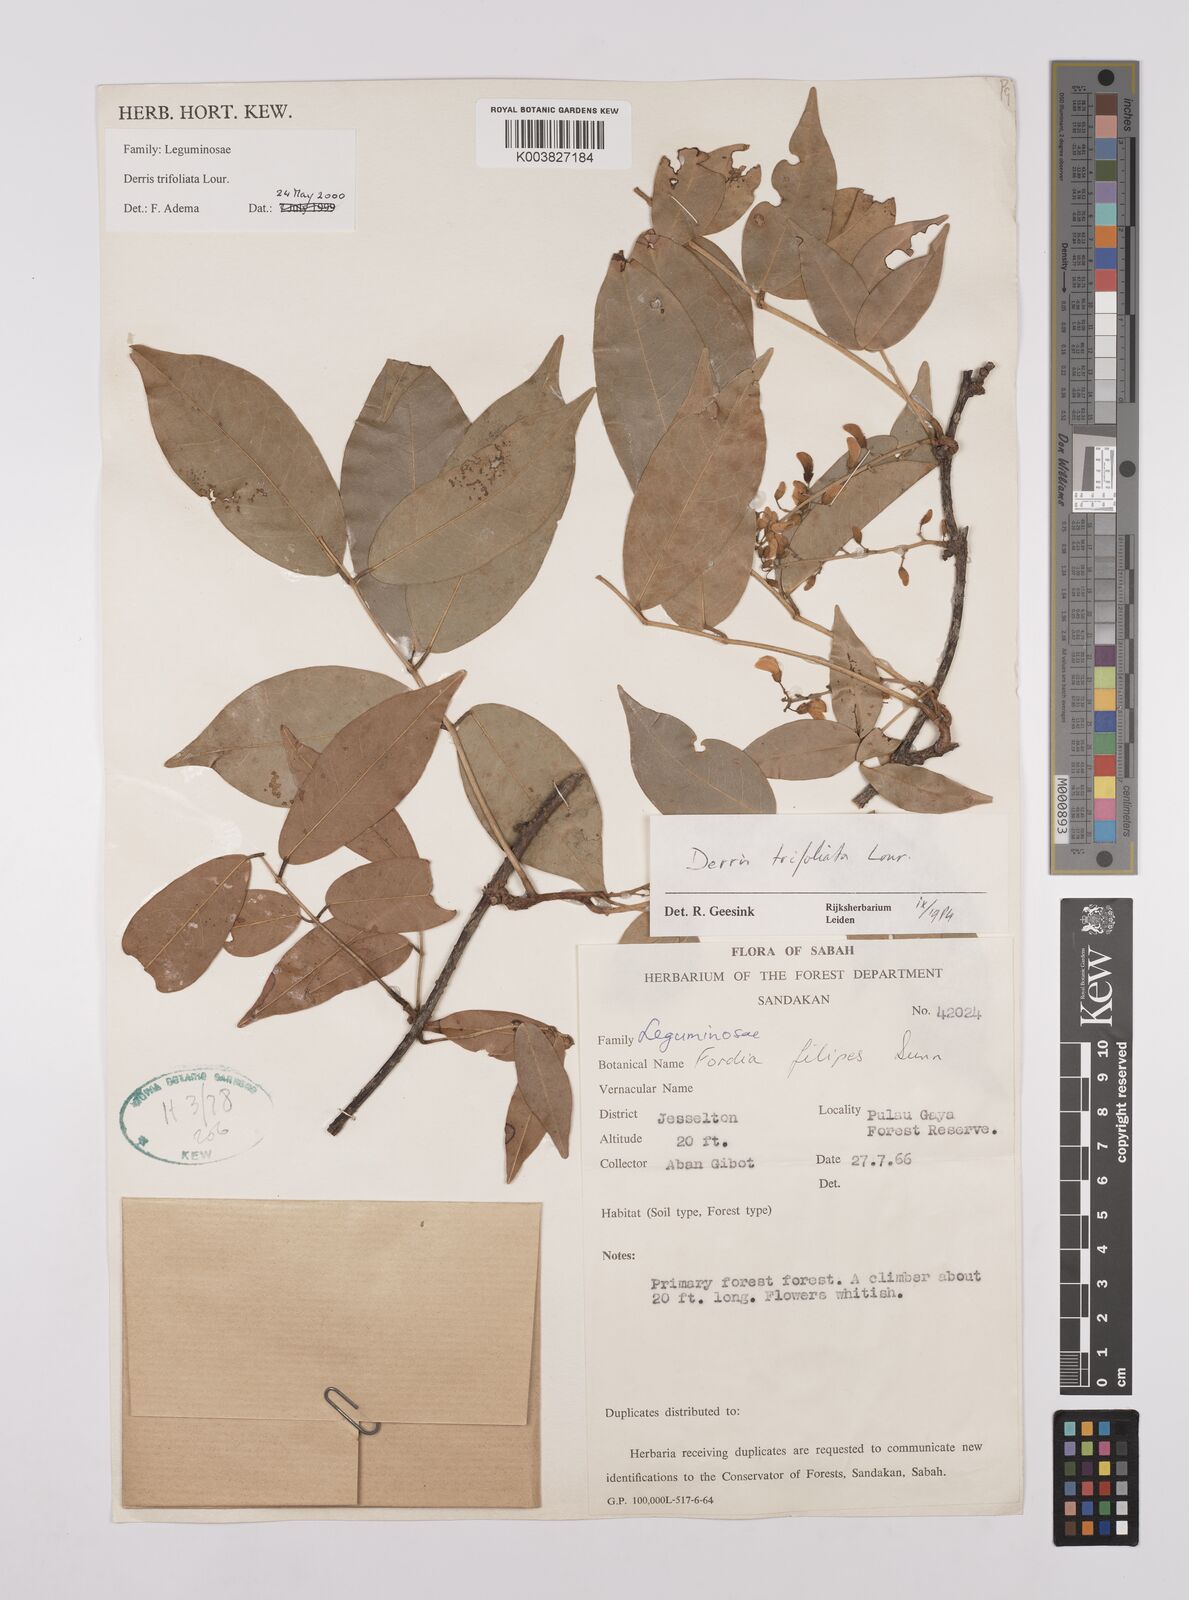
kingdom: Plantae
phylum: Tracheophyta
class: Magnoliopsida
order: Fabales
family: Fabaceae
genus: Derris
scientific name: Derris trifoliata
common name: Three-leaf derris
